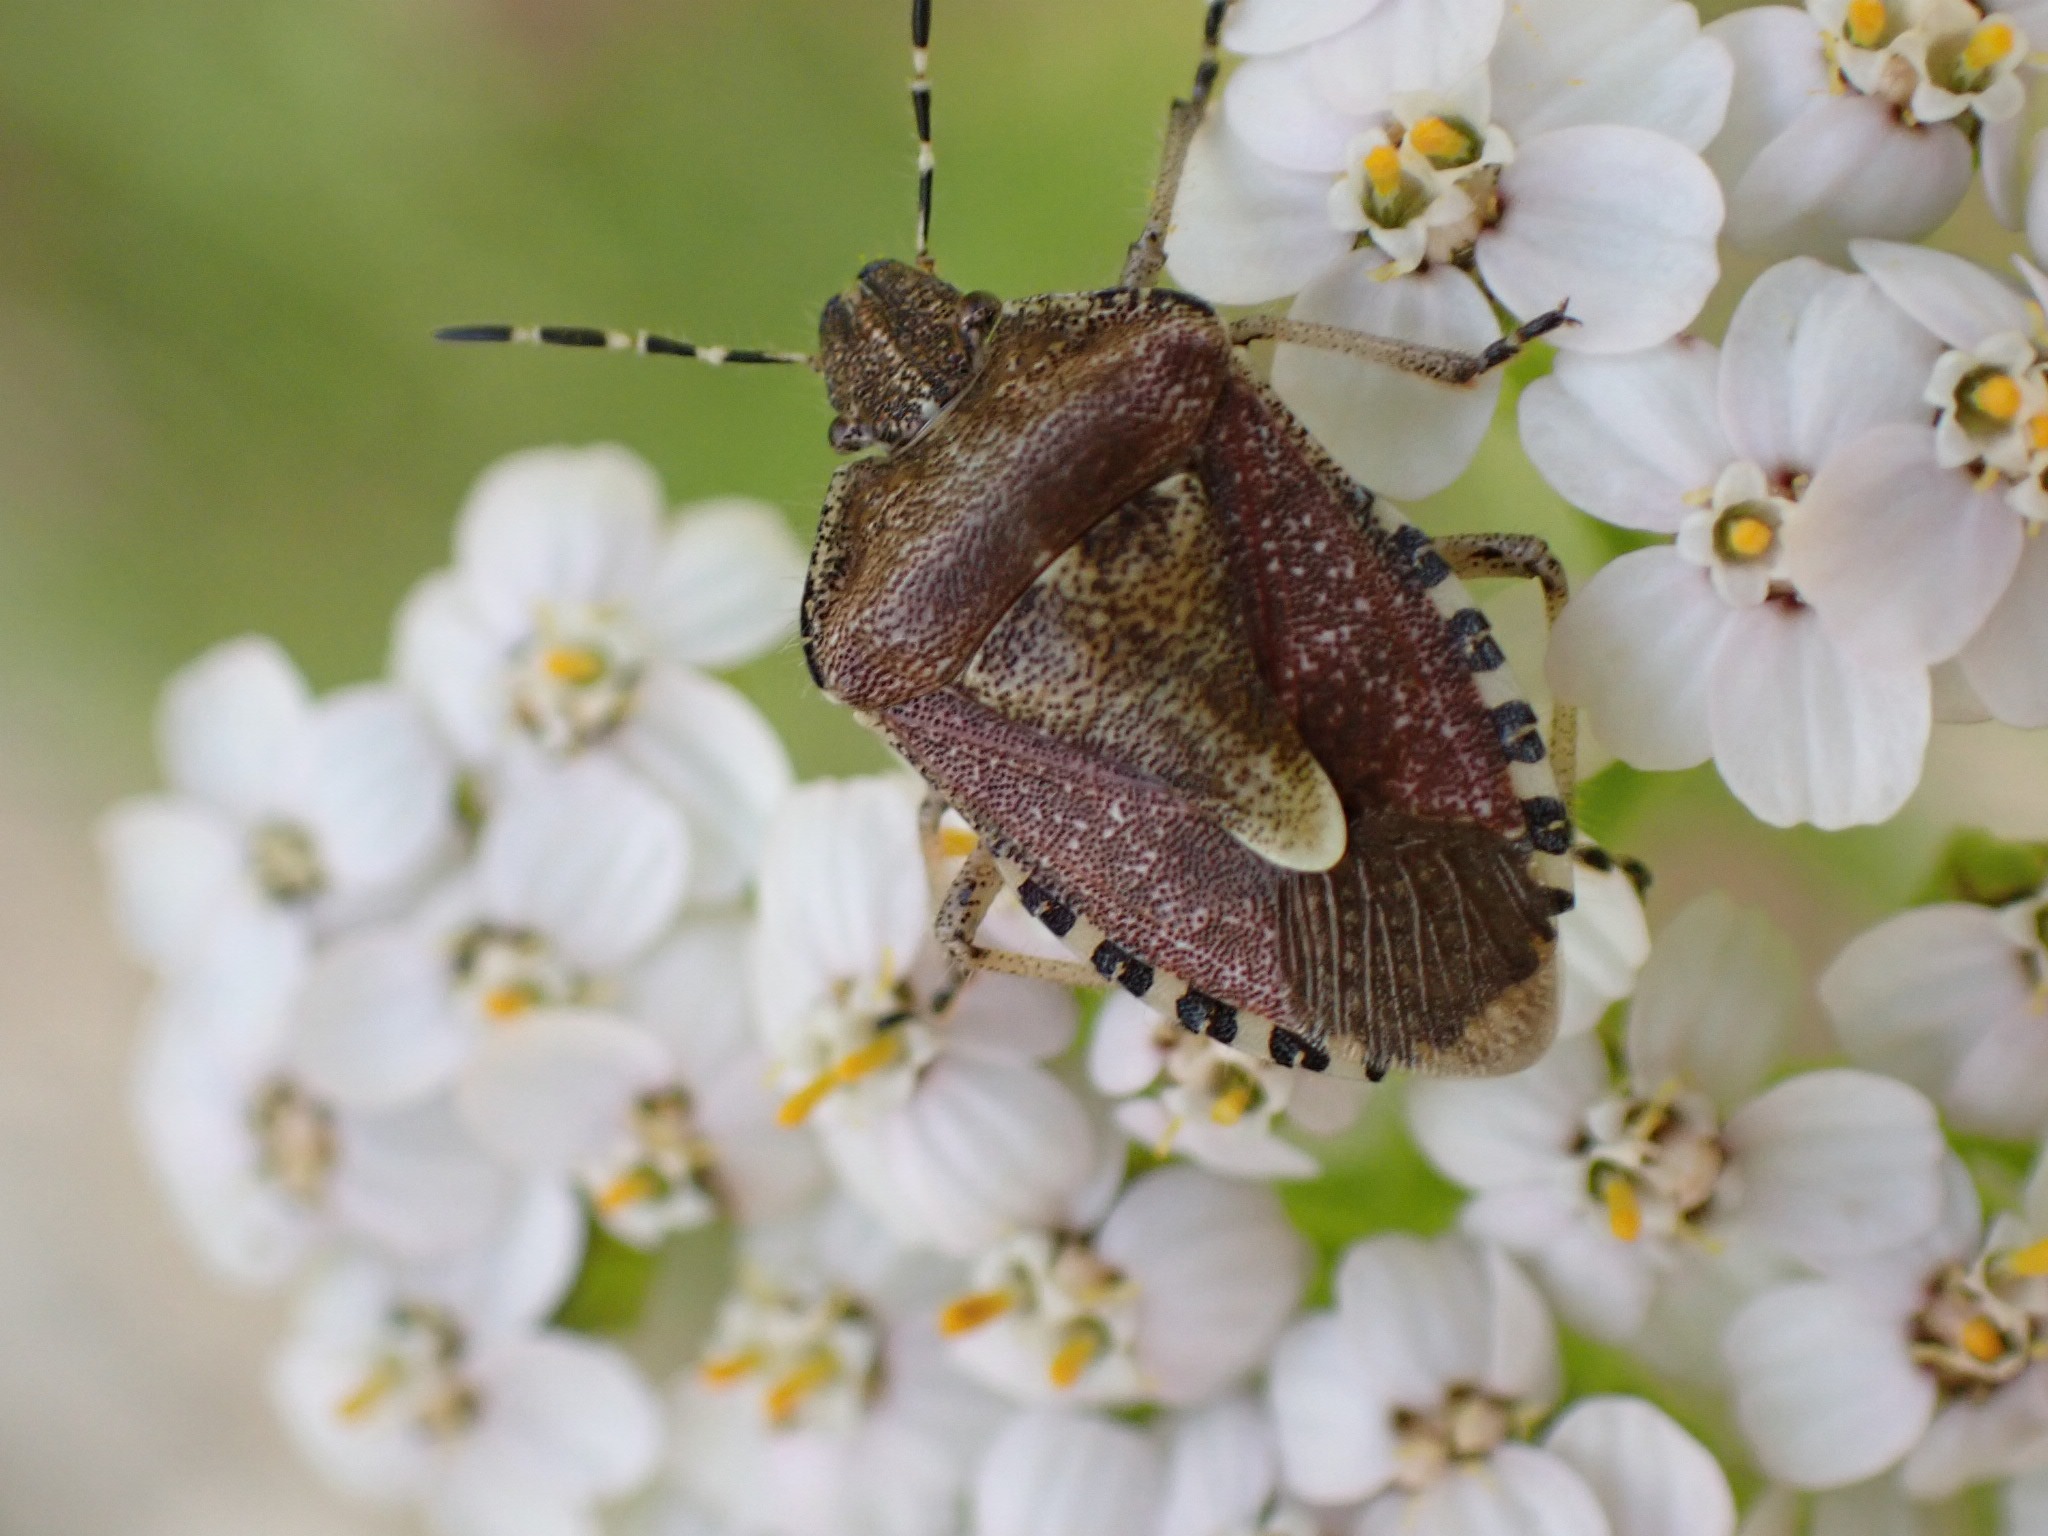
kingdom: Animalia
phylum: Arthropoda
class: Insecta
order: Hemiptera
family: Pentatomidae
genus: Dolycoris
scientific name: Dolycoris baccarum
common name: Almindelig bærtæge
